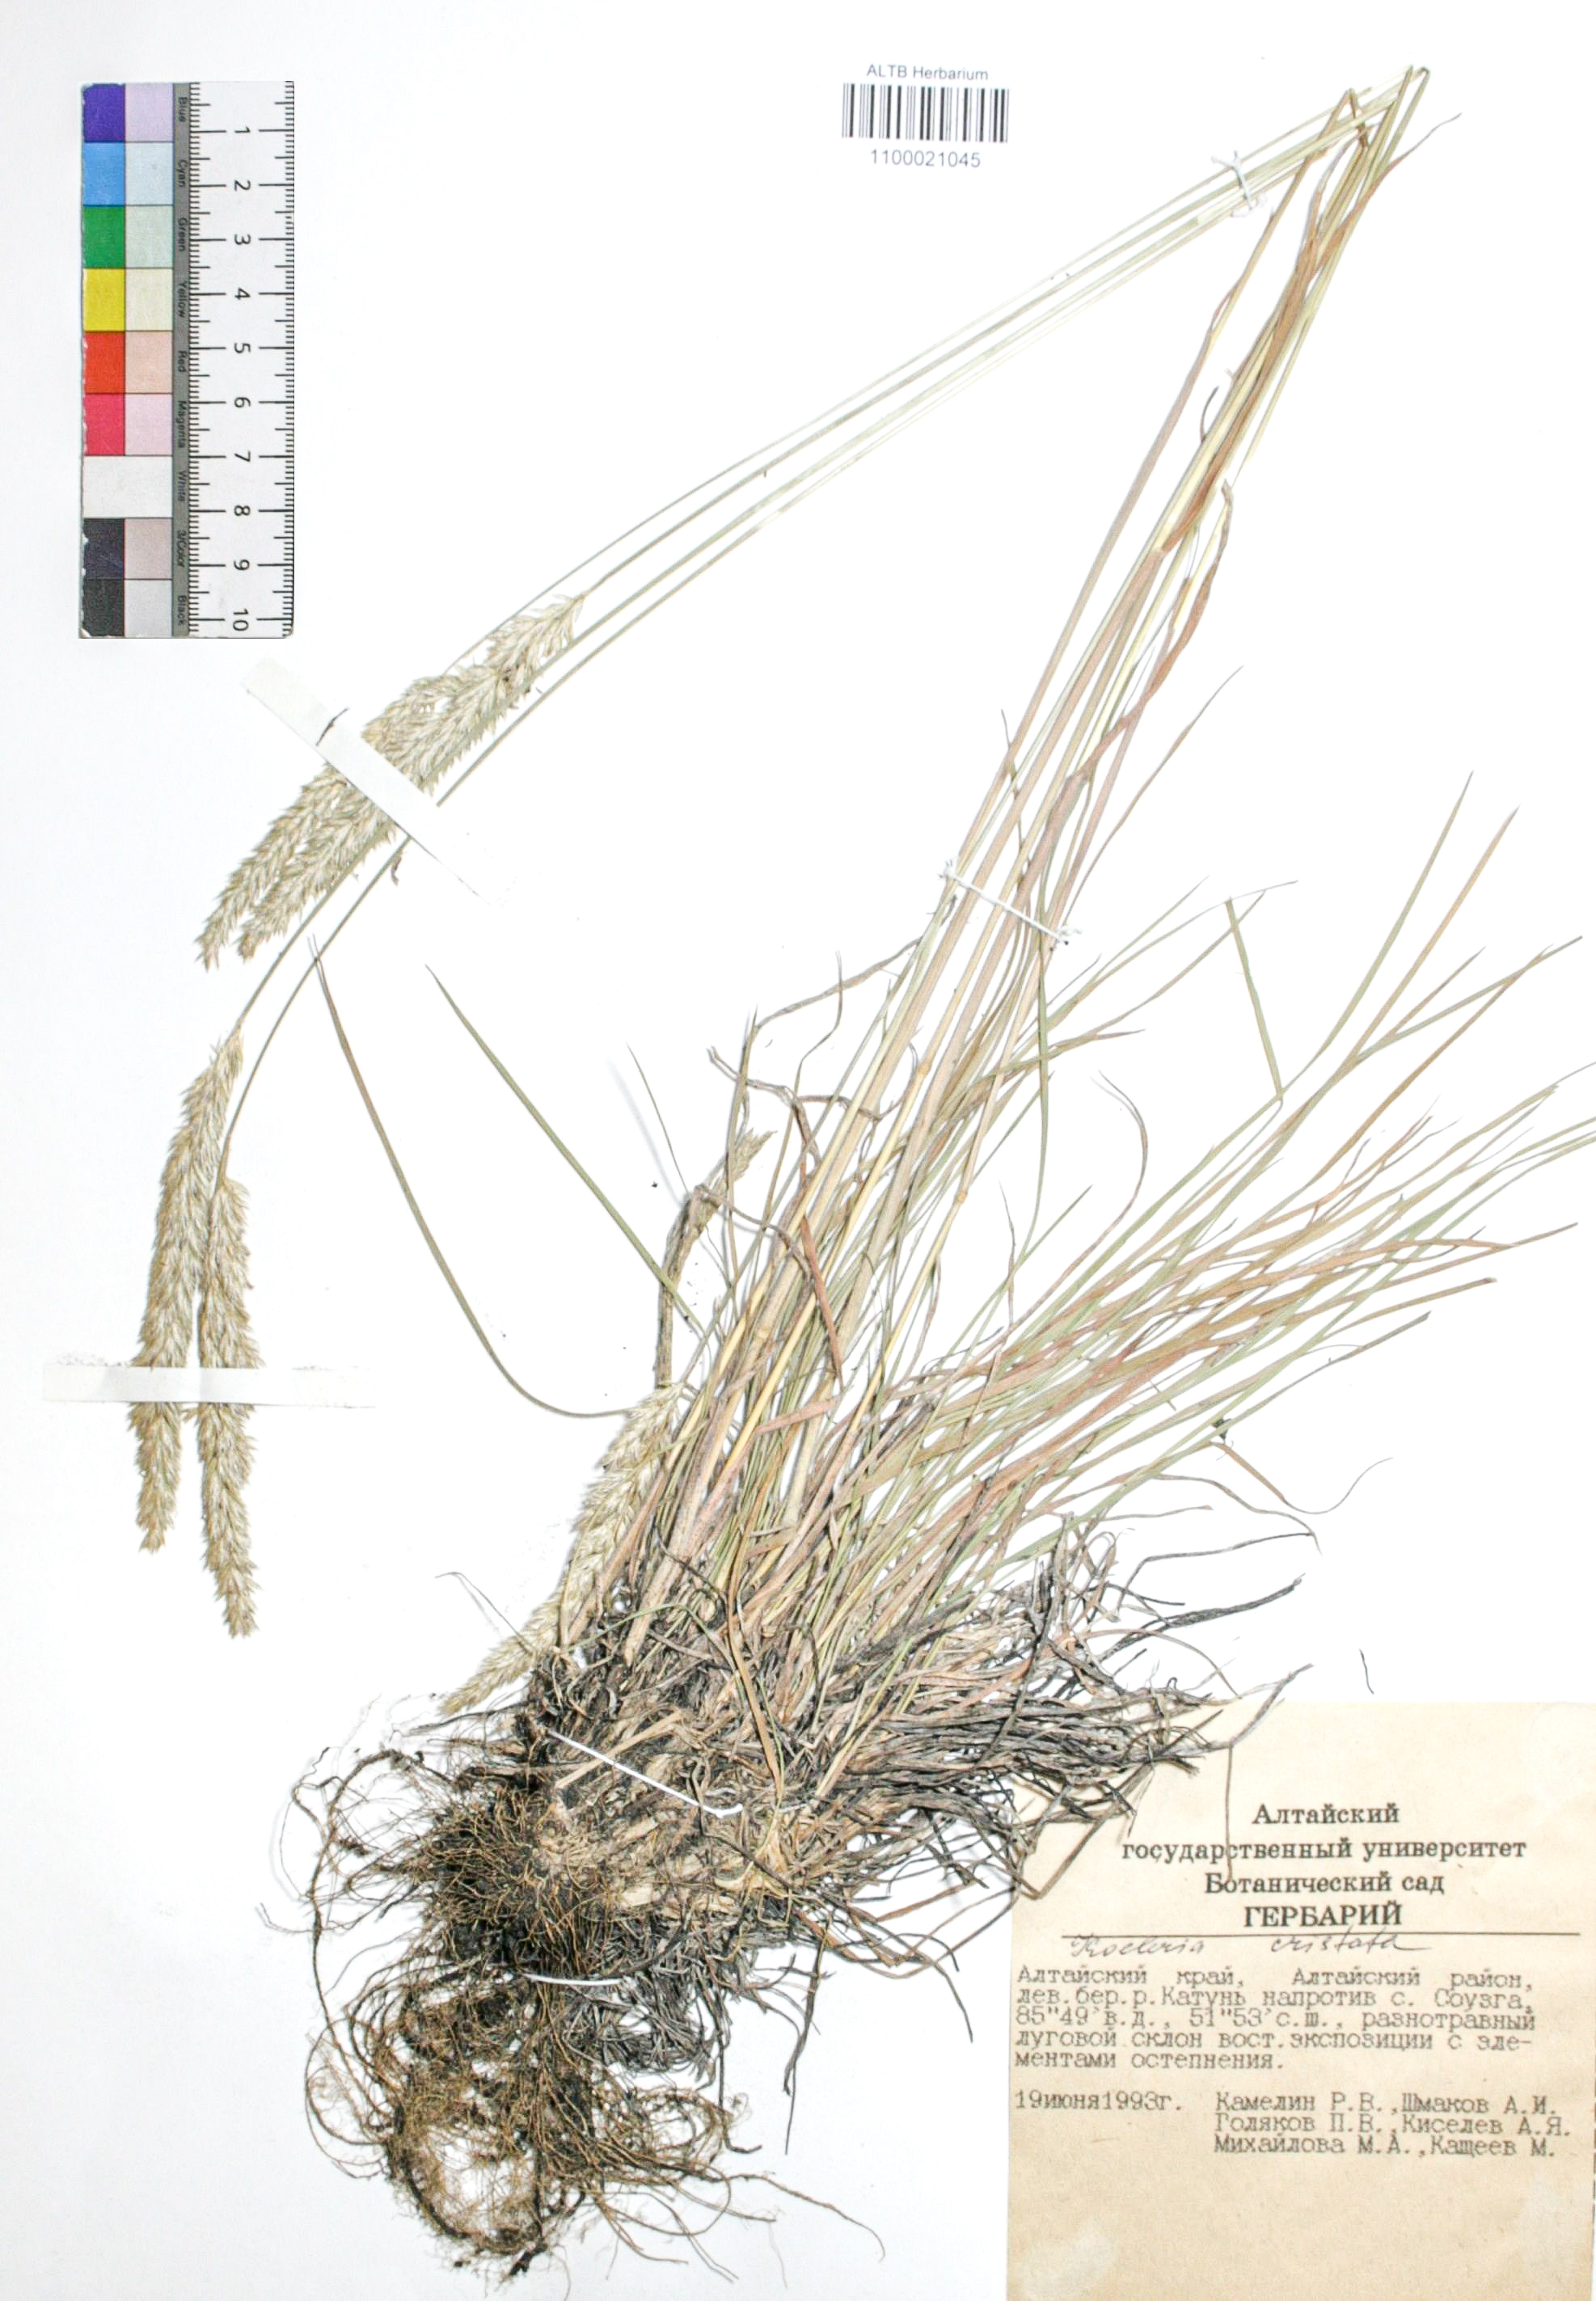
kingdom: Plantae
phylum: Tracheophyta
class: Liliopsida
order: Poales
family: Poaceae
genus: Koeleria
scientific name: Koeleria pyramidata
